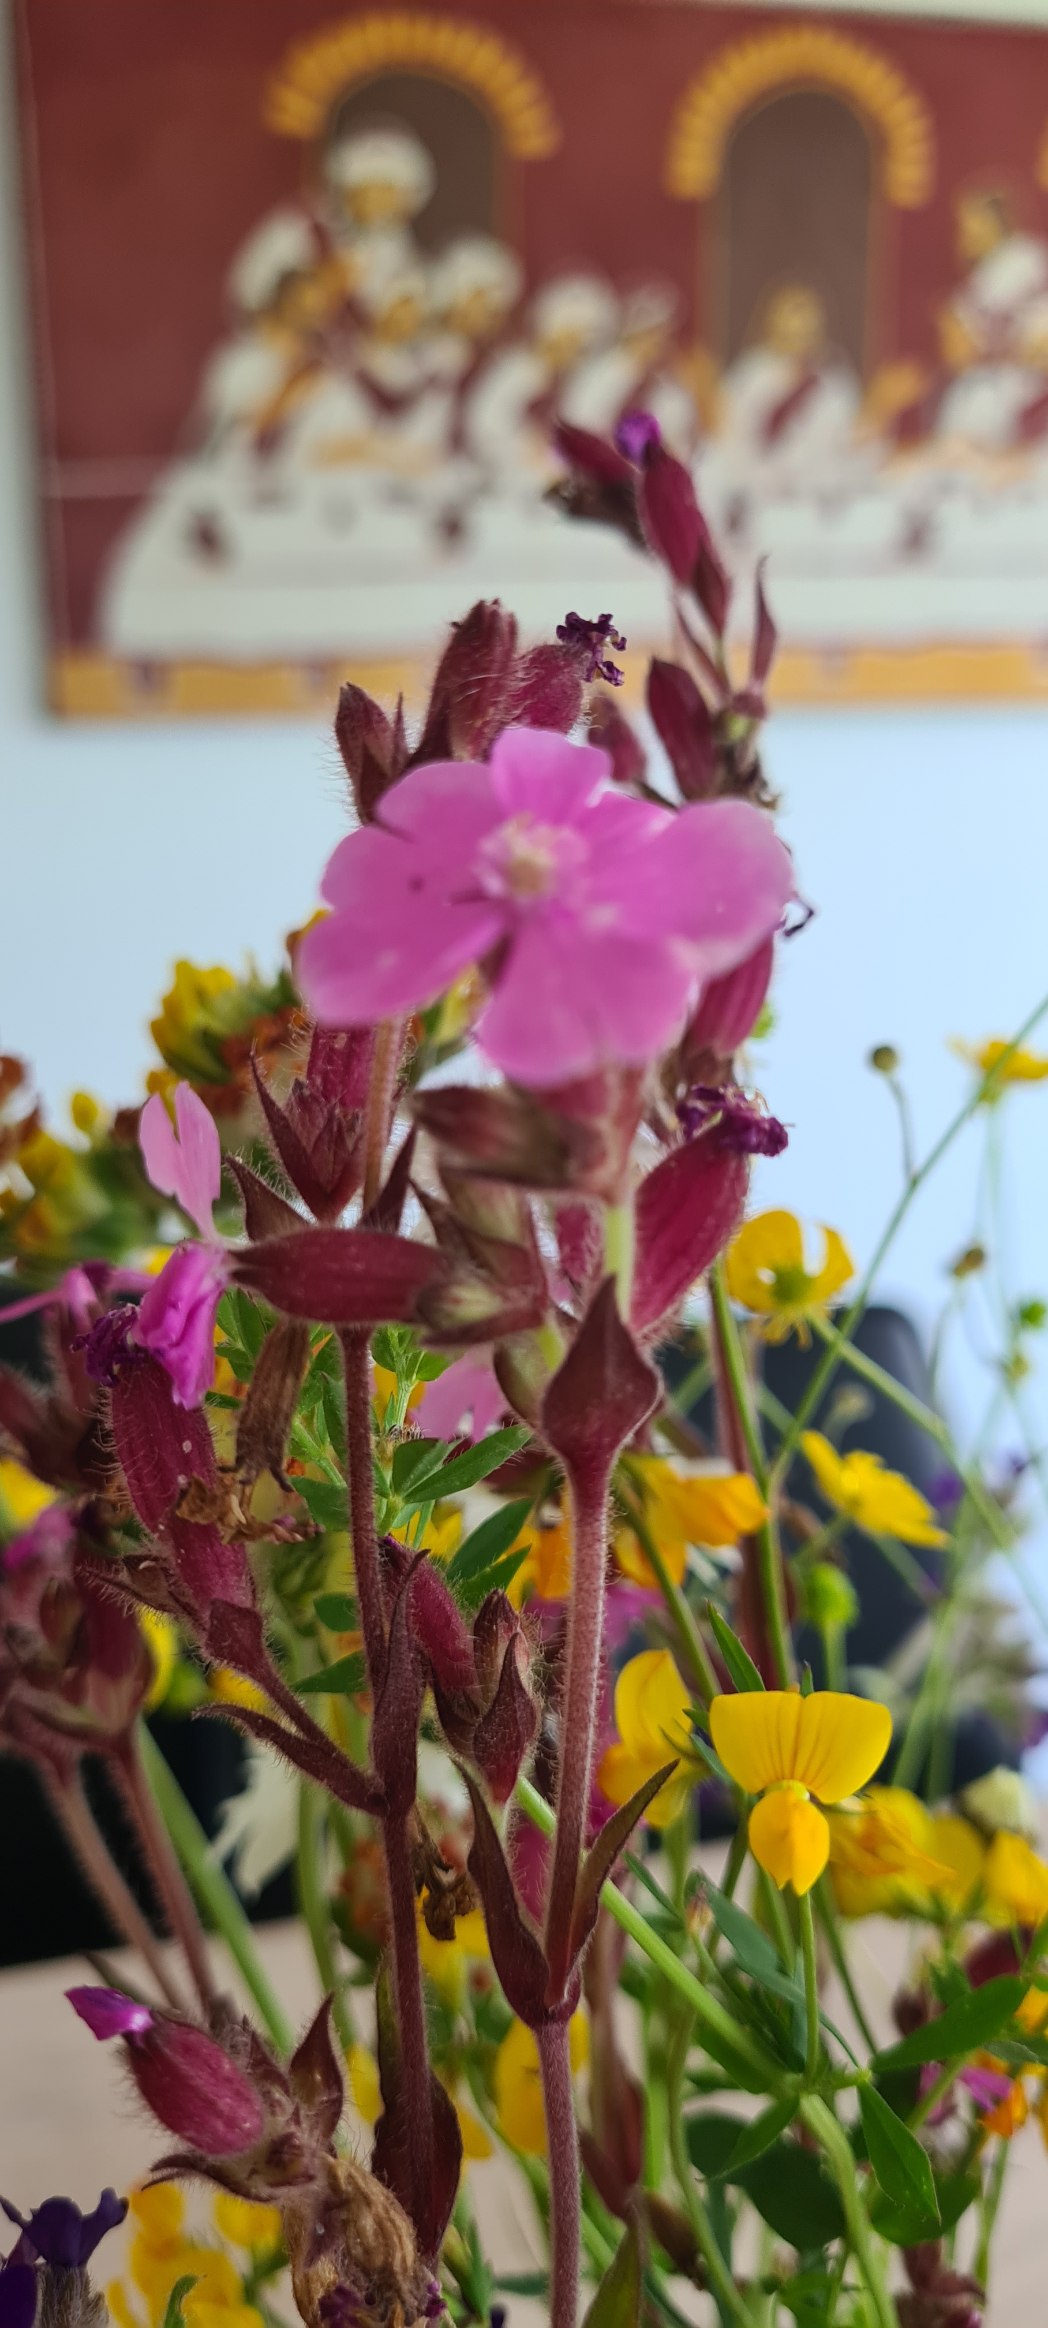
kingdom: Plantae
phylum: Tracheophyta
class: Magnoliopsida
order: Caryophyllales
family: Caryophyllaceae
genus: Silene
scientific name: Silene dioica
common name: Dagpragtstjerne
